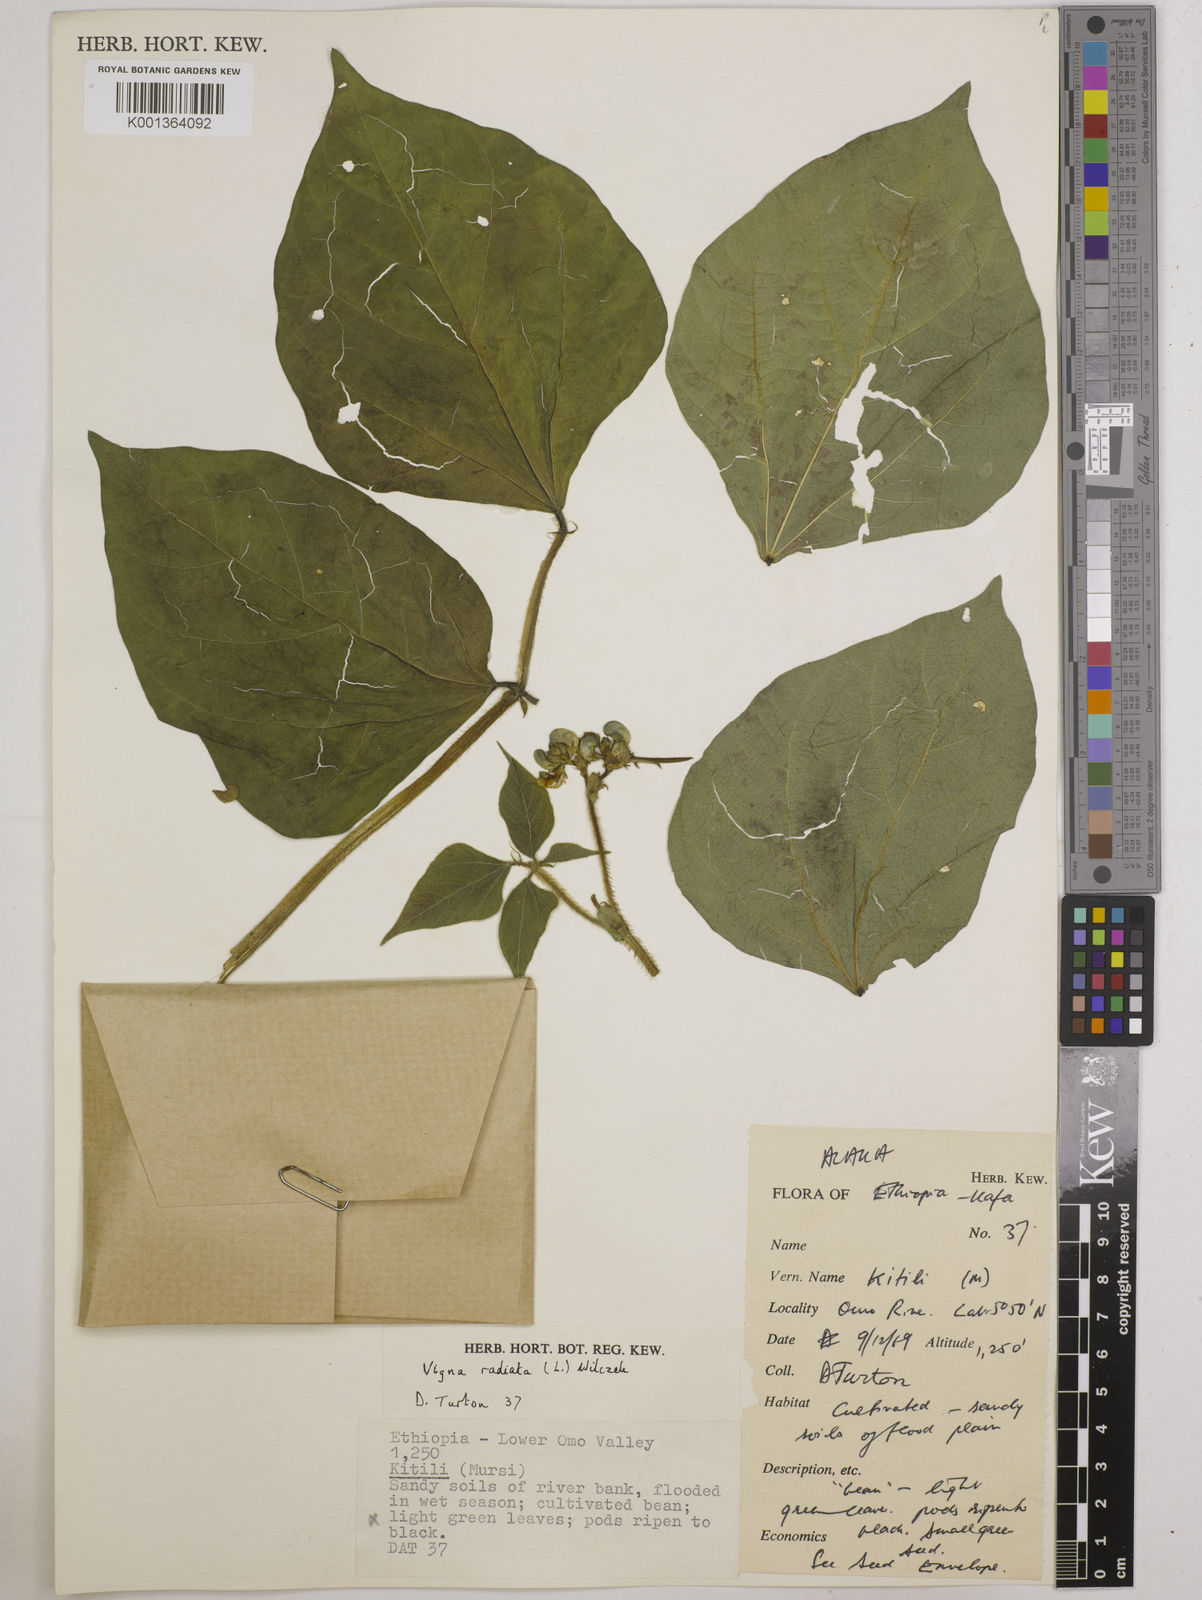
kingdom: Plantae
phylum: Tracheophyta
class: Magnoliopsida
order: Fabales
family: Fabaceae
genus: Vigna
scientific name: Vigna radiata
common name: Mung-bean
